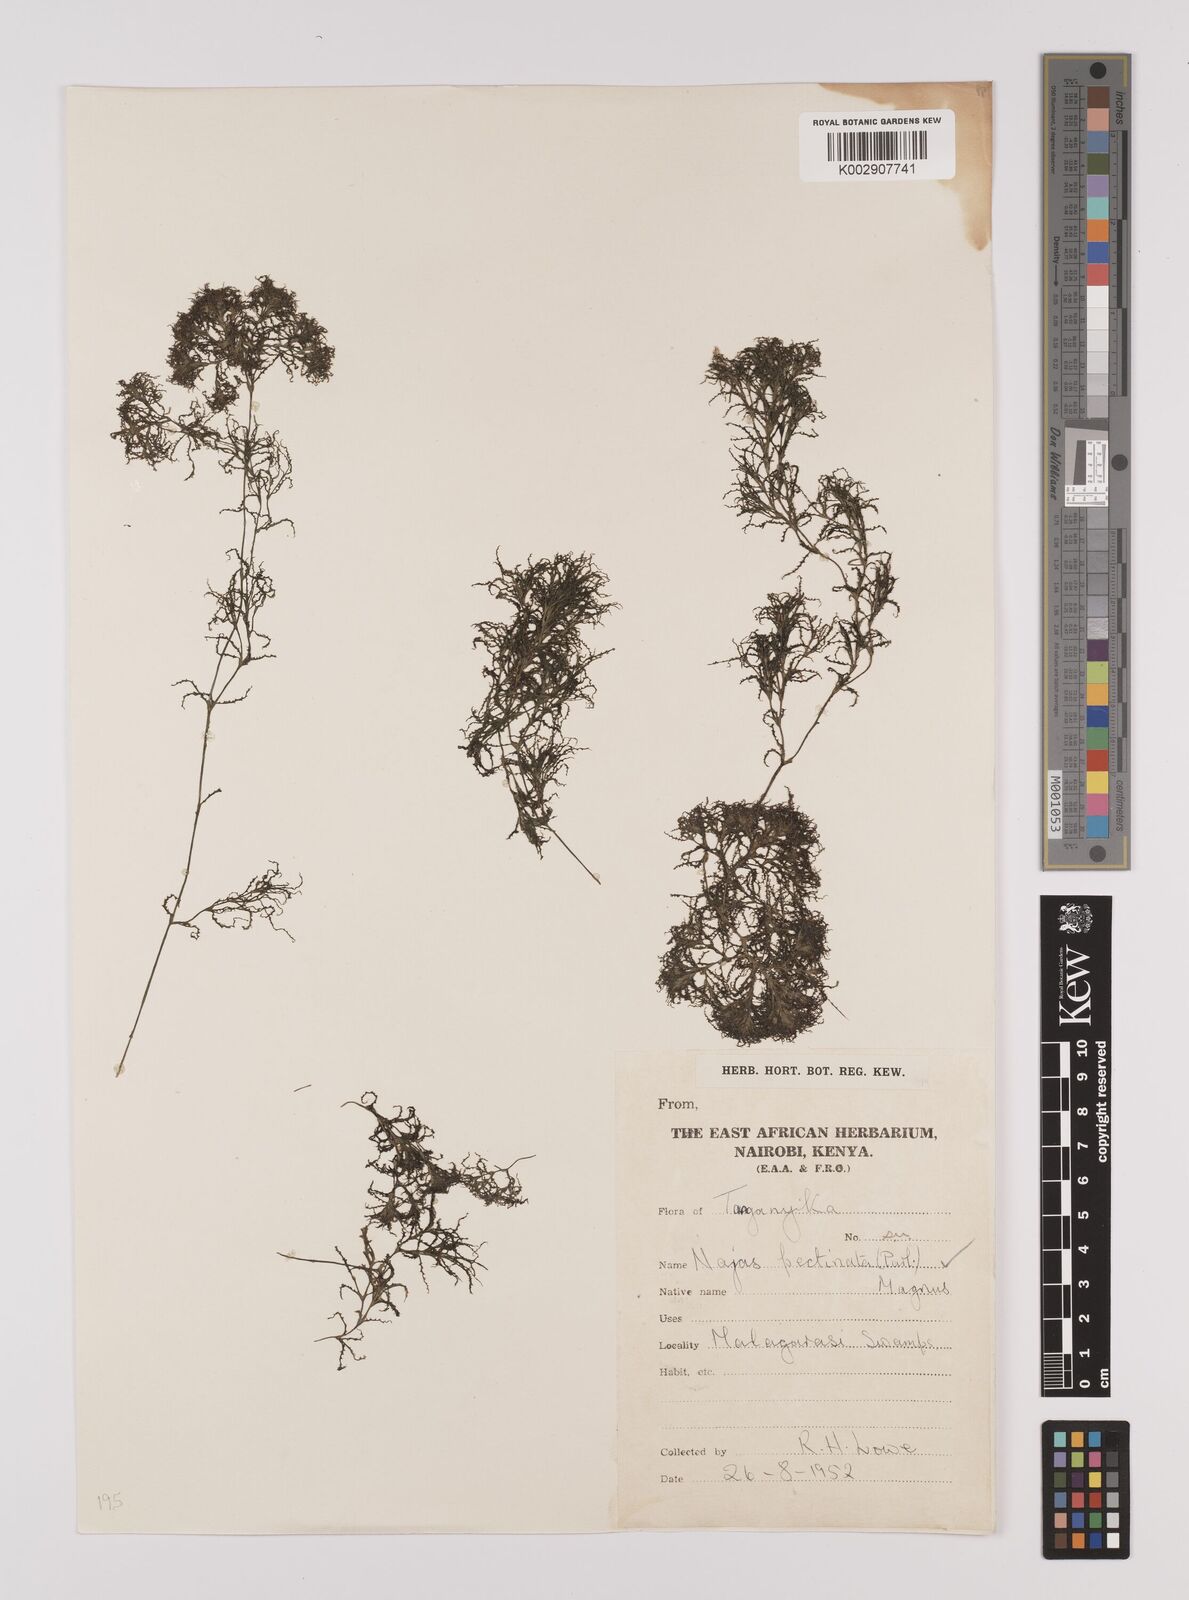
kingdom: Plantae
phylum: Tracheophyta
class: Liliopsida
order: Alismatales
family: Hydrocharitaceae
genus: Najas
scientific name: Najas horrida
